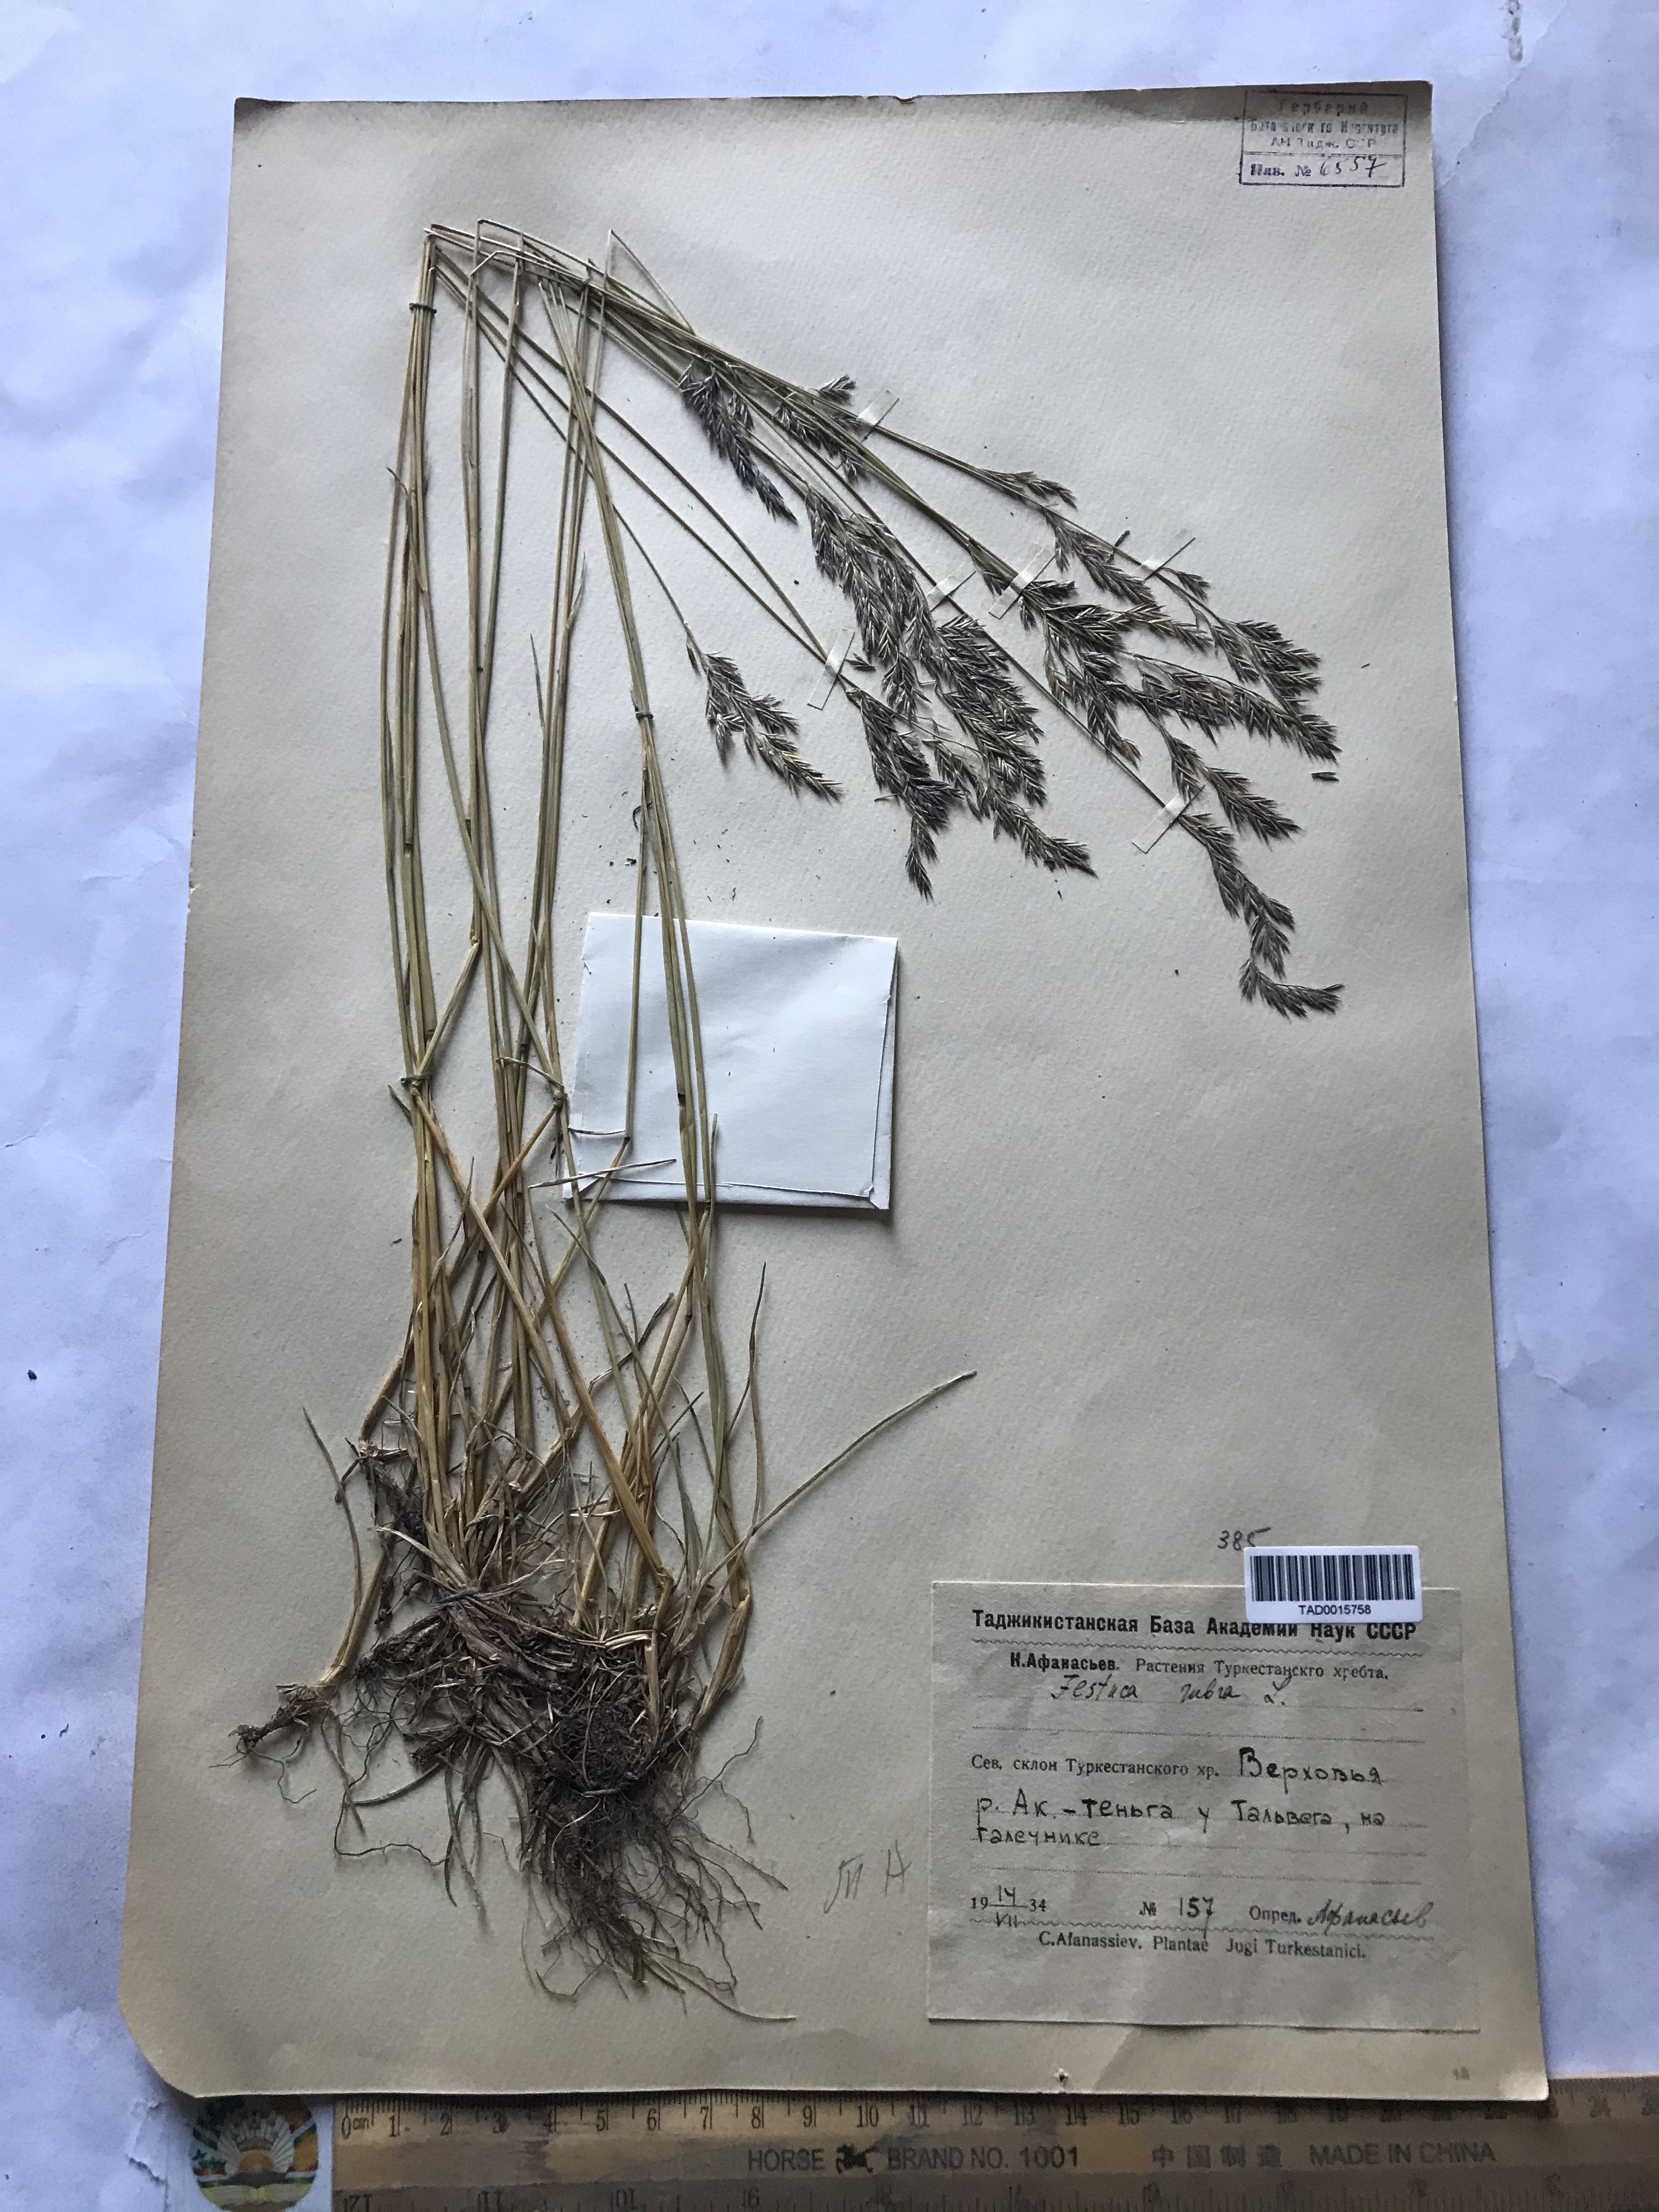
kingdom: Plantae
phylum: Tracheophyta
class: Liliopsida
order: Poales
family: Poaceae
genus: Festuca
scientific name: Festuca rubra
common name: Red fescue
